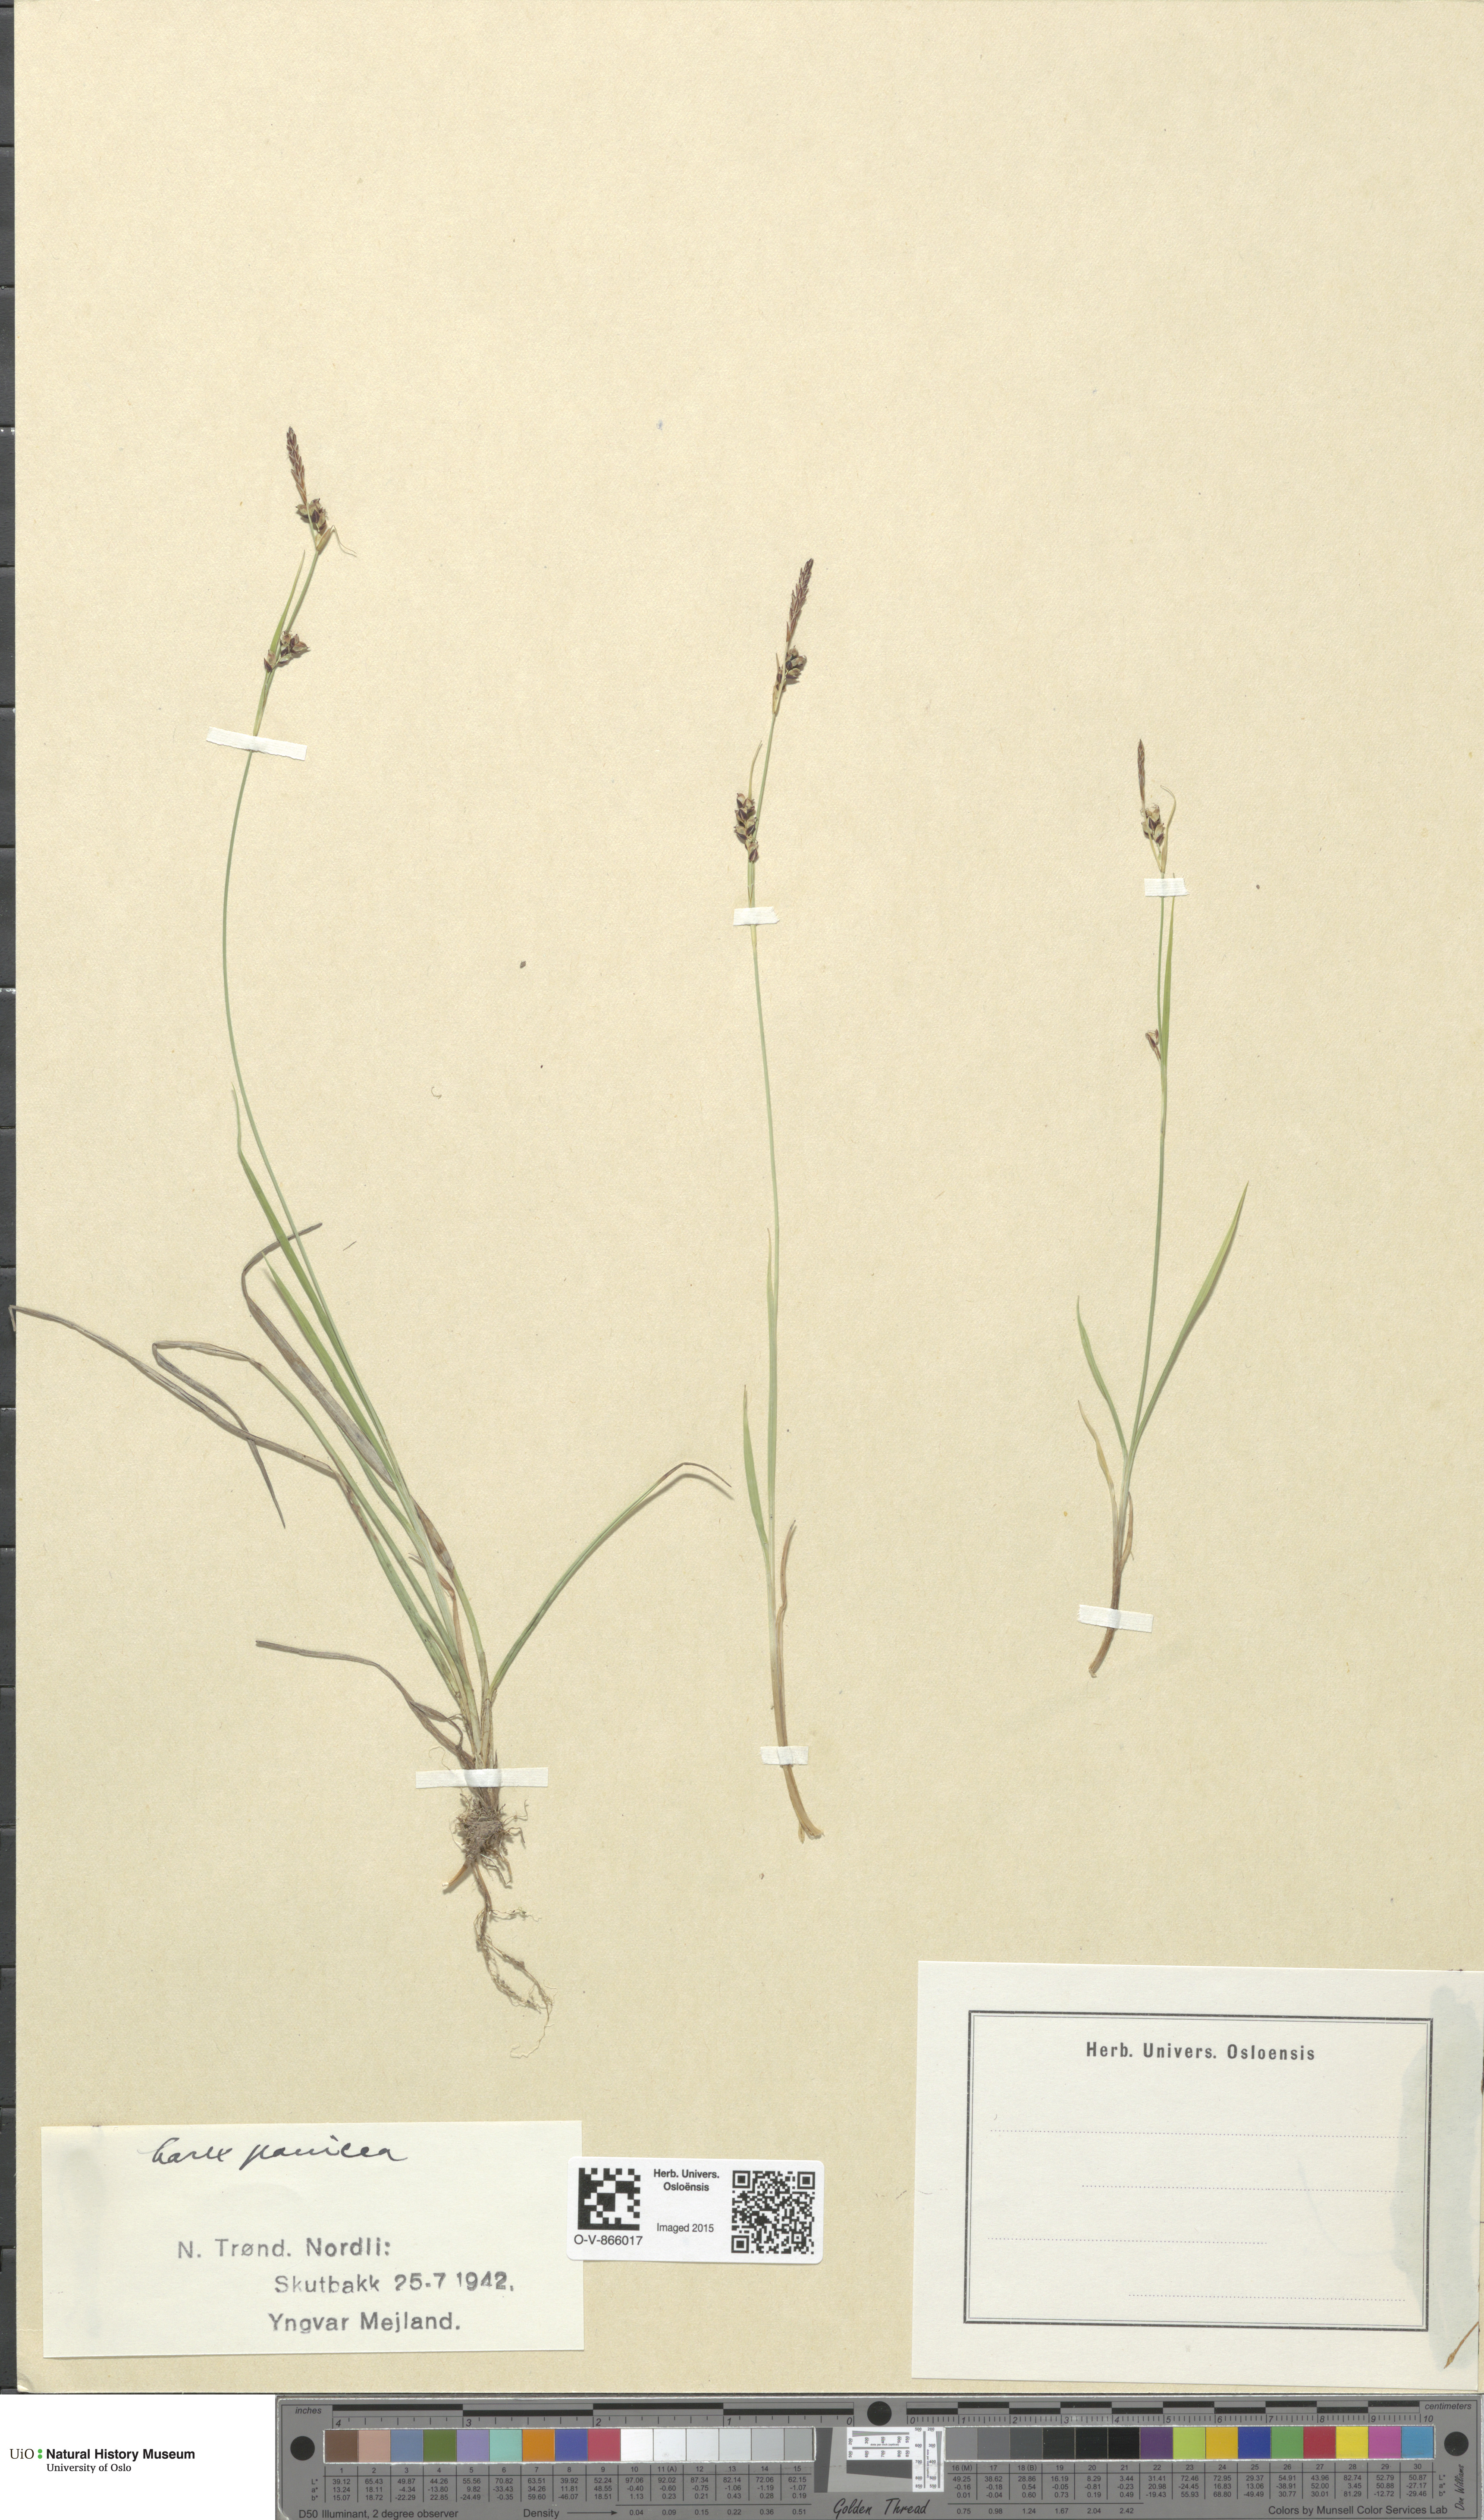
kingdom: Plantae
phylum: Tracheophyta
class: Liliopsida
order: Poales
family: Cyperaceae
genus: Carex
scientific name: Carex panicea
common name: Carnation sedge
